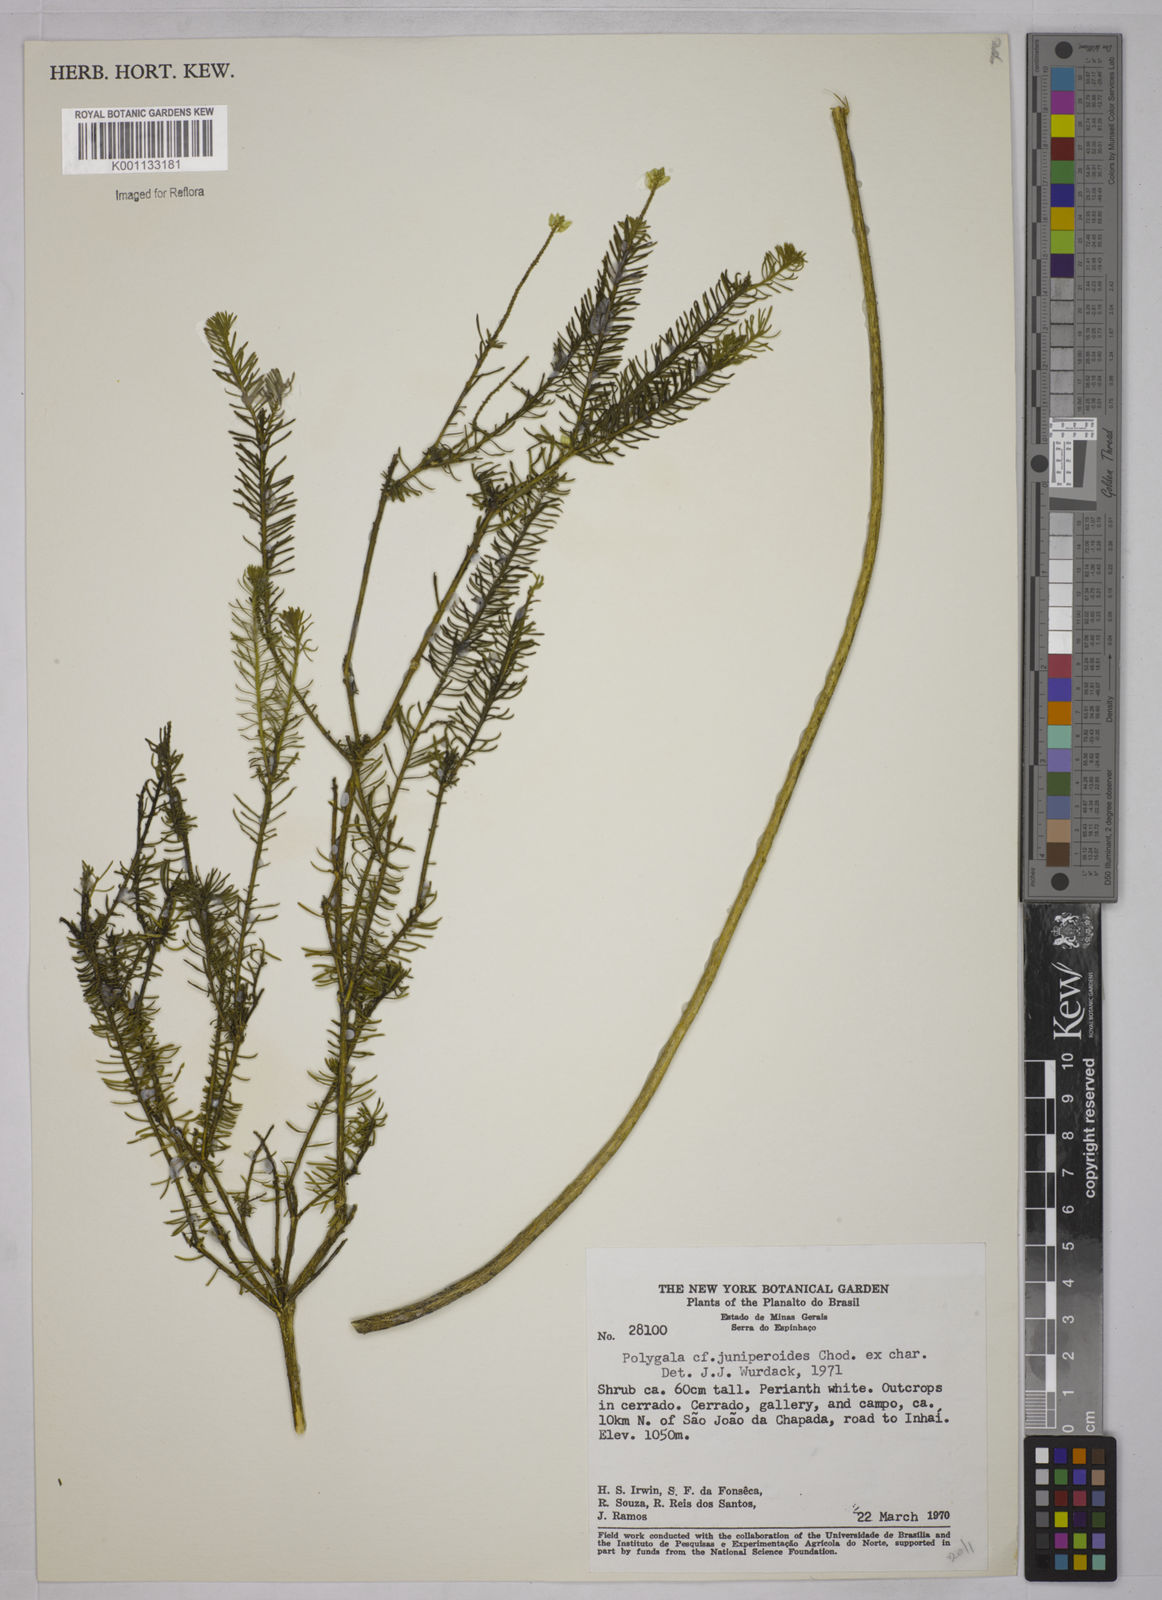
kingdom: Plantae
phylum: Tracheophyta
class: Magnoliopsida
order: Fabales
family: Polygalaceae
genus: Polygala
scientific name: Polygala pseudoerica
